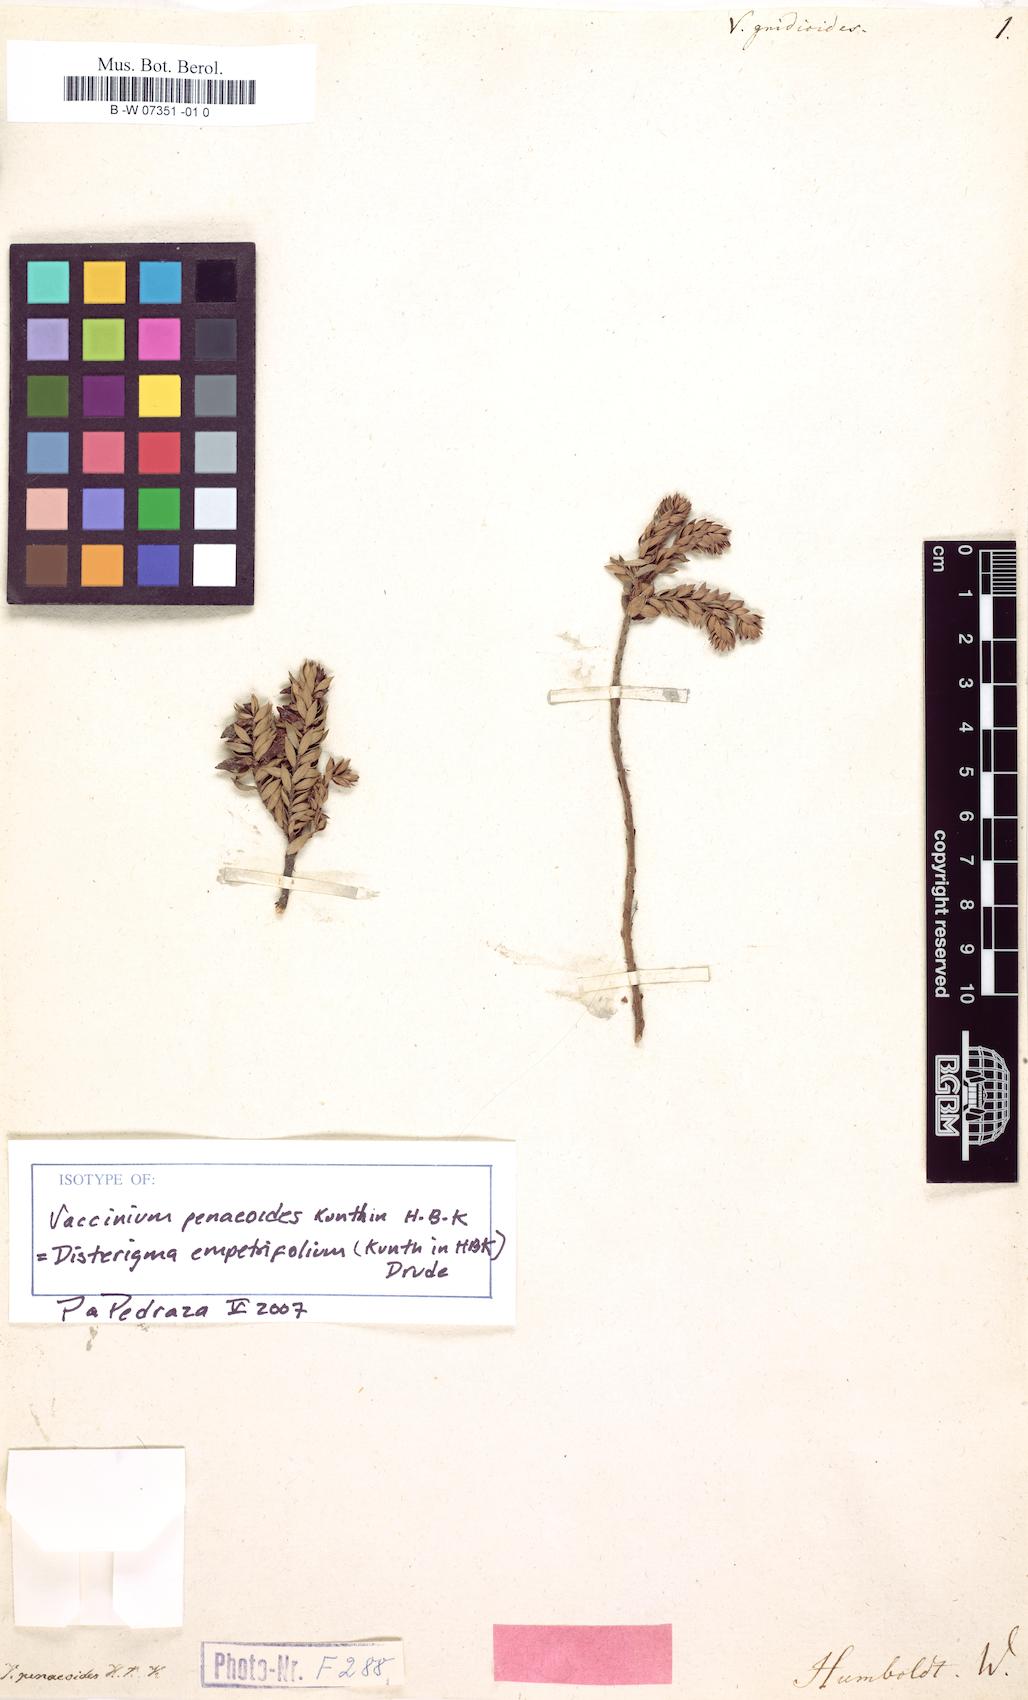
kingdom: Plantae
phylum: Tracheophyta
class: Magnoliopsida
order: Ericales
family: Ericaceae
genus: Vaccinium
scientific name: Vaccinium
